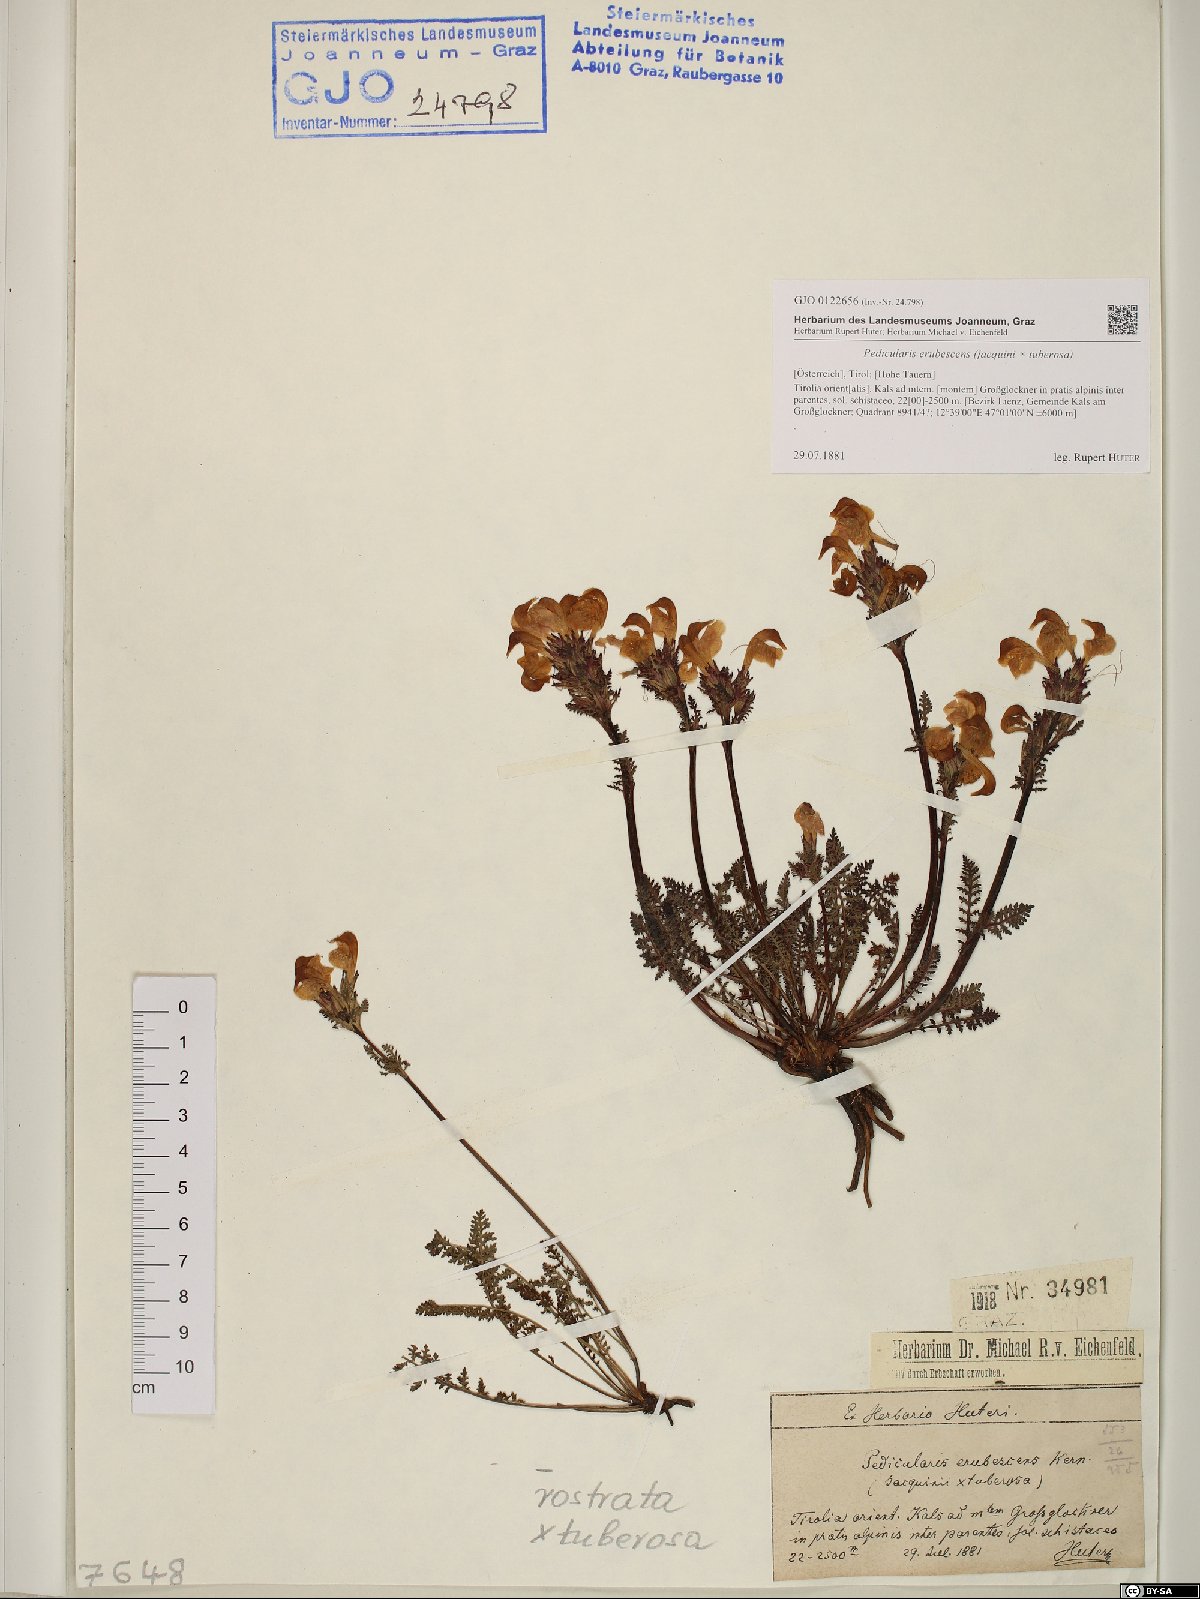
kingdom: Plantae
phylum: Tracheophyta
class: Magnoliopsida
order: Lamiales
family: Scrophulariaceae
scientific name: Scrophulariaceae
